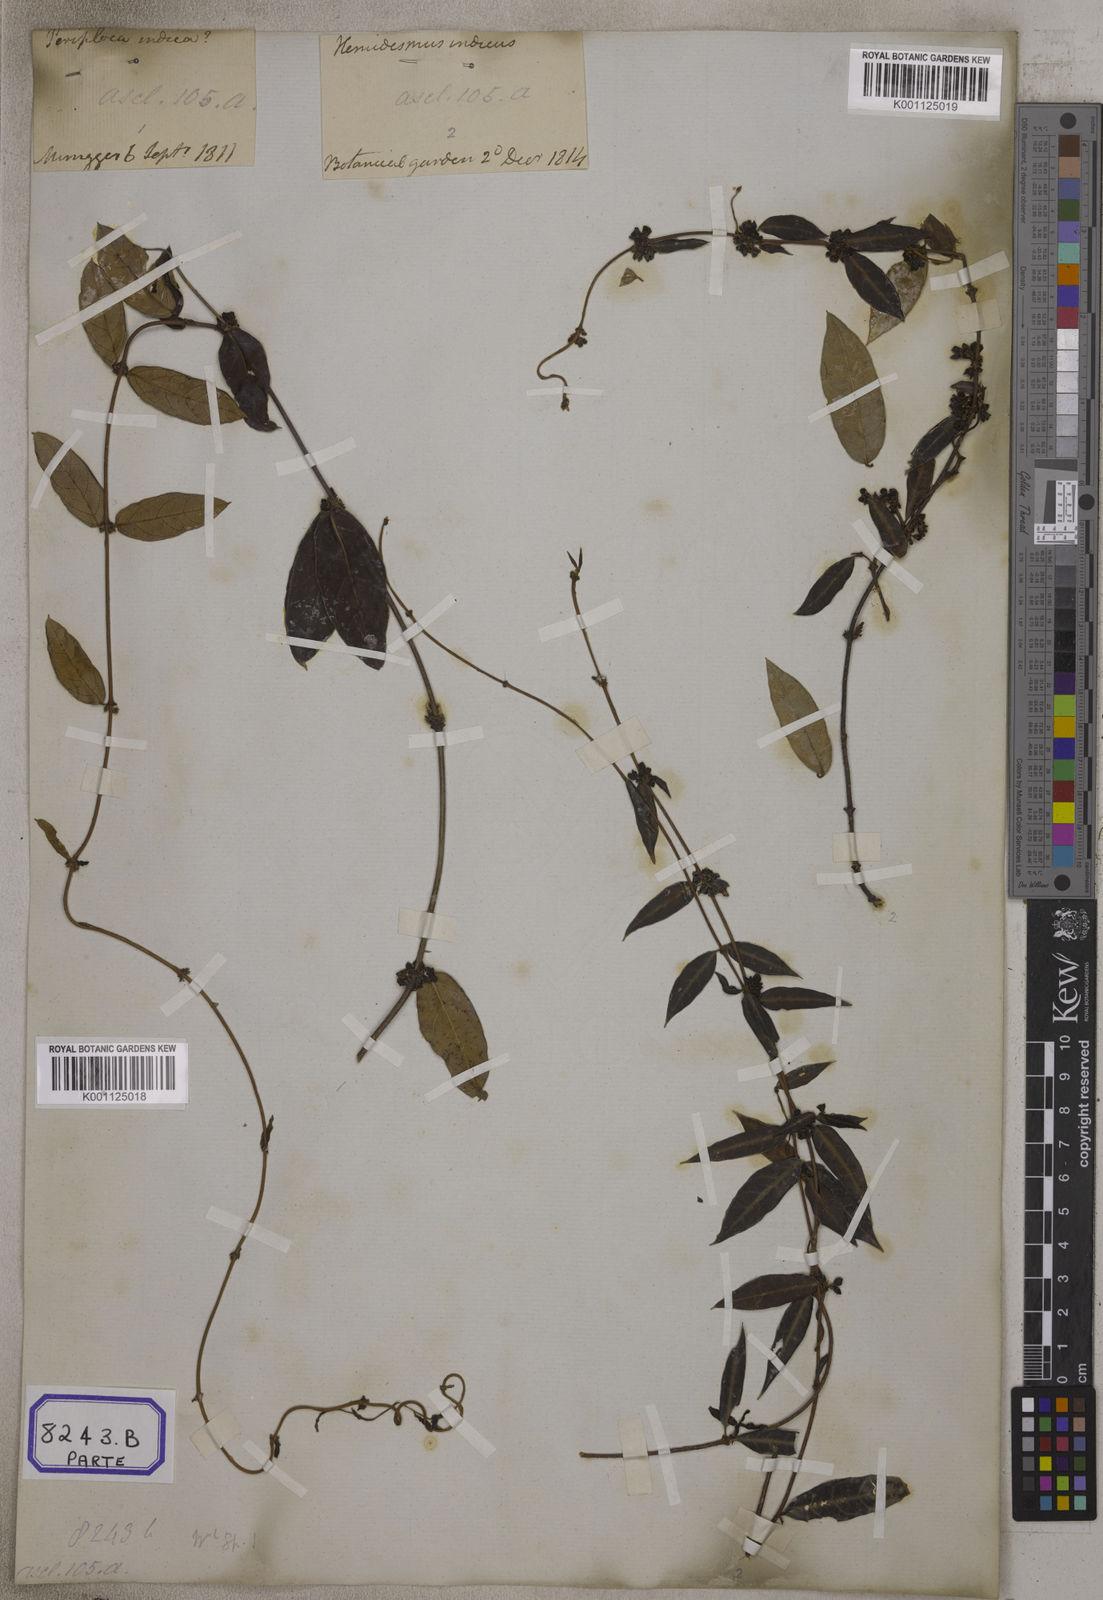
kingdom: Plantae
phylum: Tracheophyta
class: Magnoliopsida
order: Gentianales
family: Apocynaceae
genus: Hemidesmus
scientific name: Hemidesmus indicus
